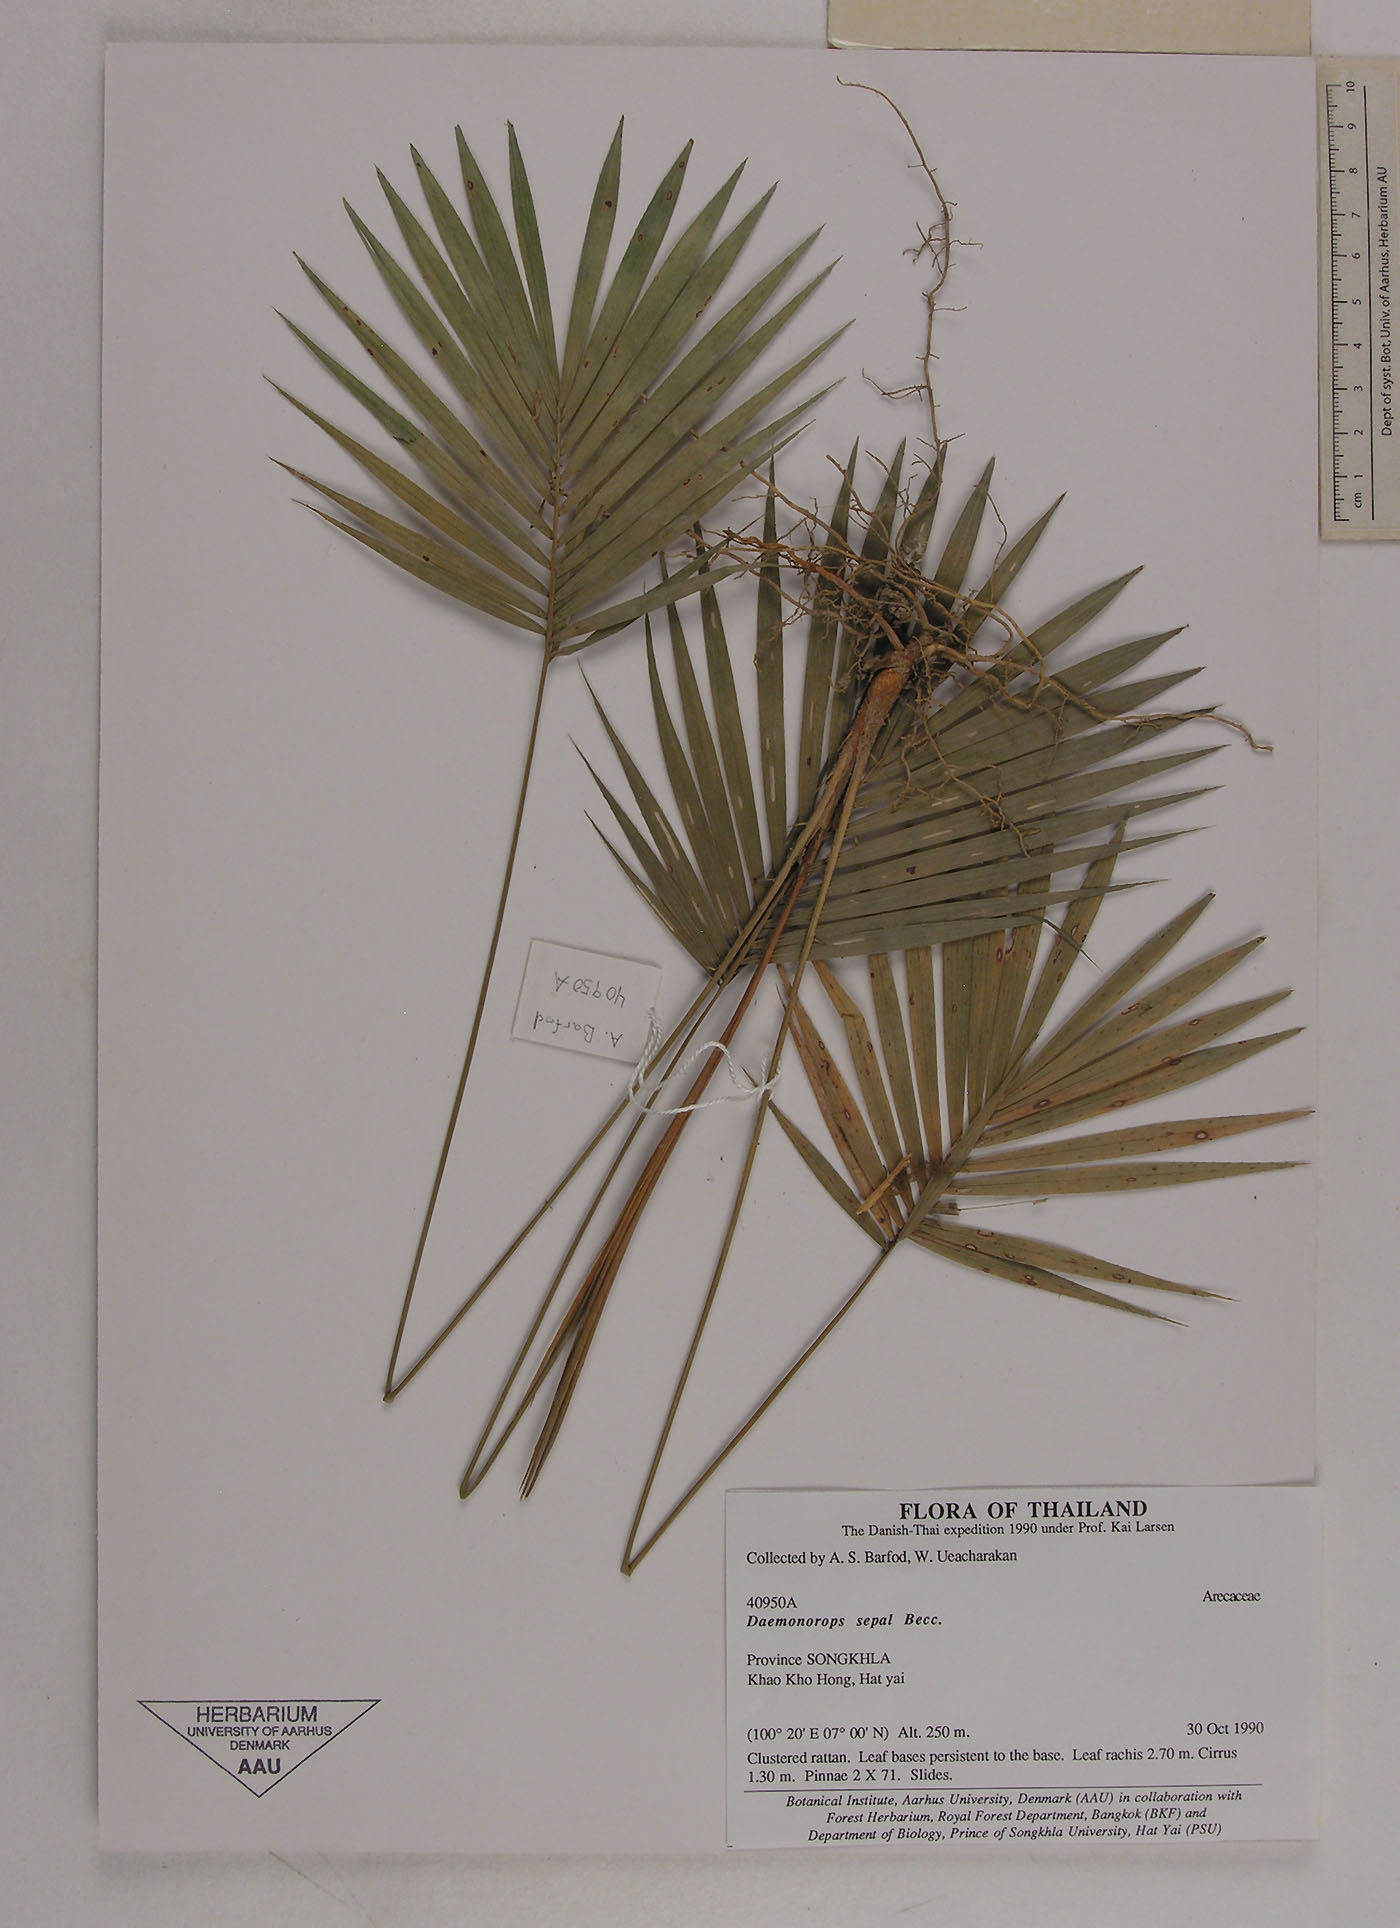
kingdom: Plantae
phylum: Tracheophyta
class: Liliopsida
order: Arecales
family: Arecaceae
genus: Calamus
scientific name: Calamus melanochaetes
